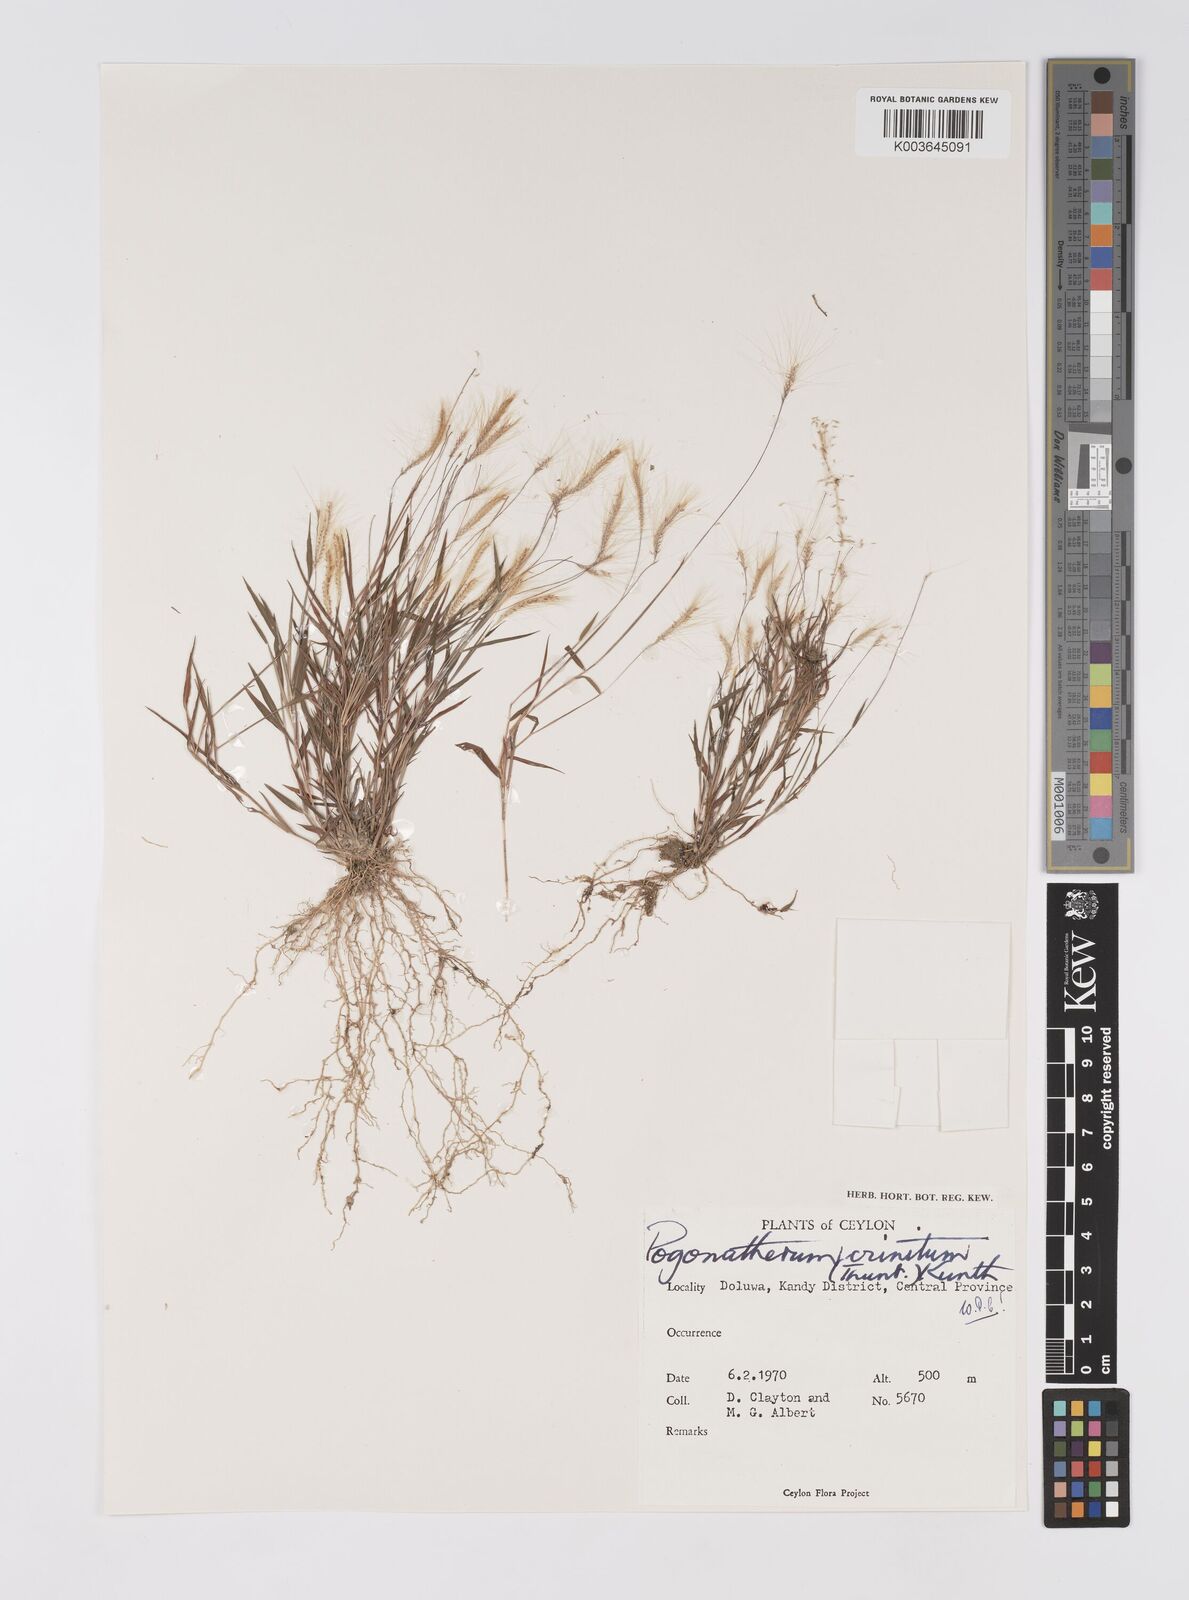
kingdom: Plantae
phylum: Tracheophyta
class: Liliopsida
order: Poales
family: Poaceae
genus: Pogonatherum
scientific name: Pogonatherum crinitum
